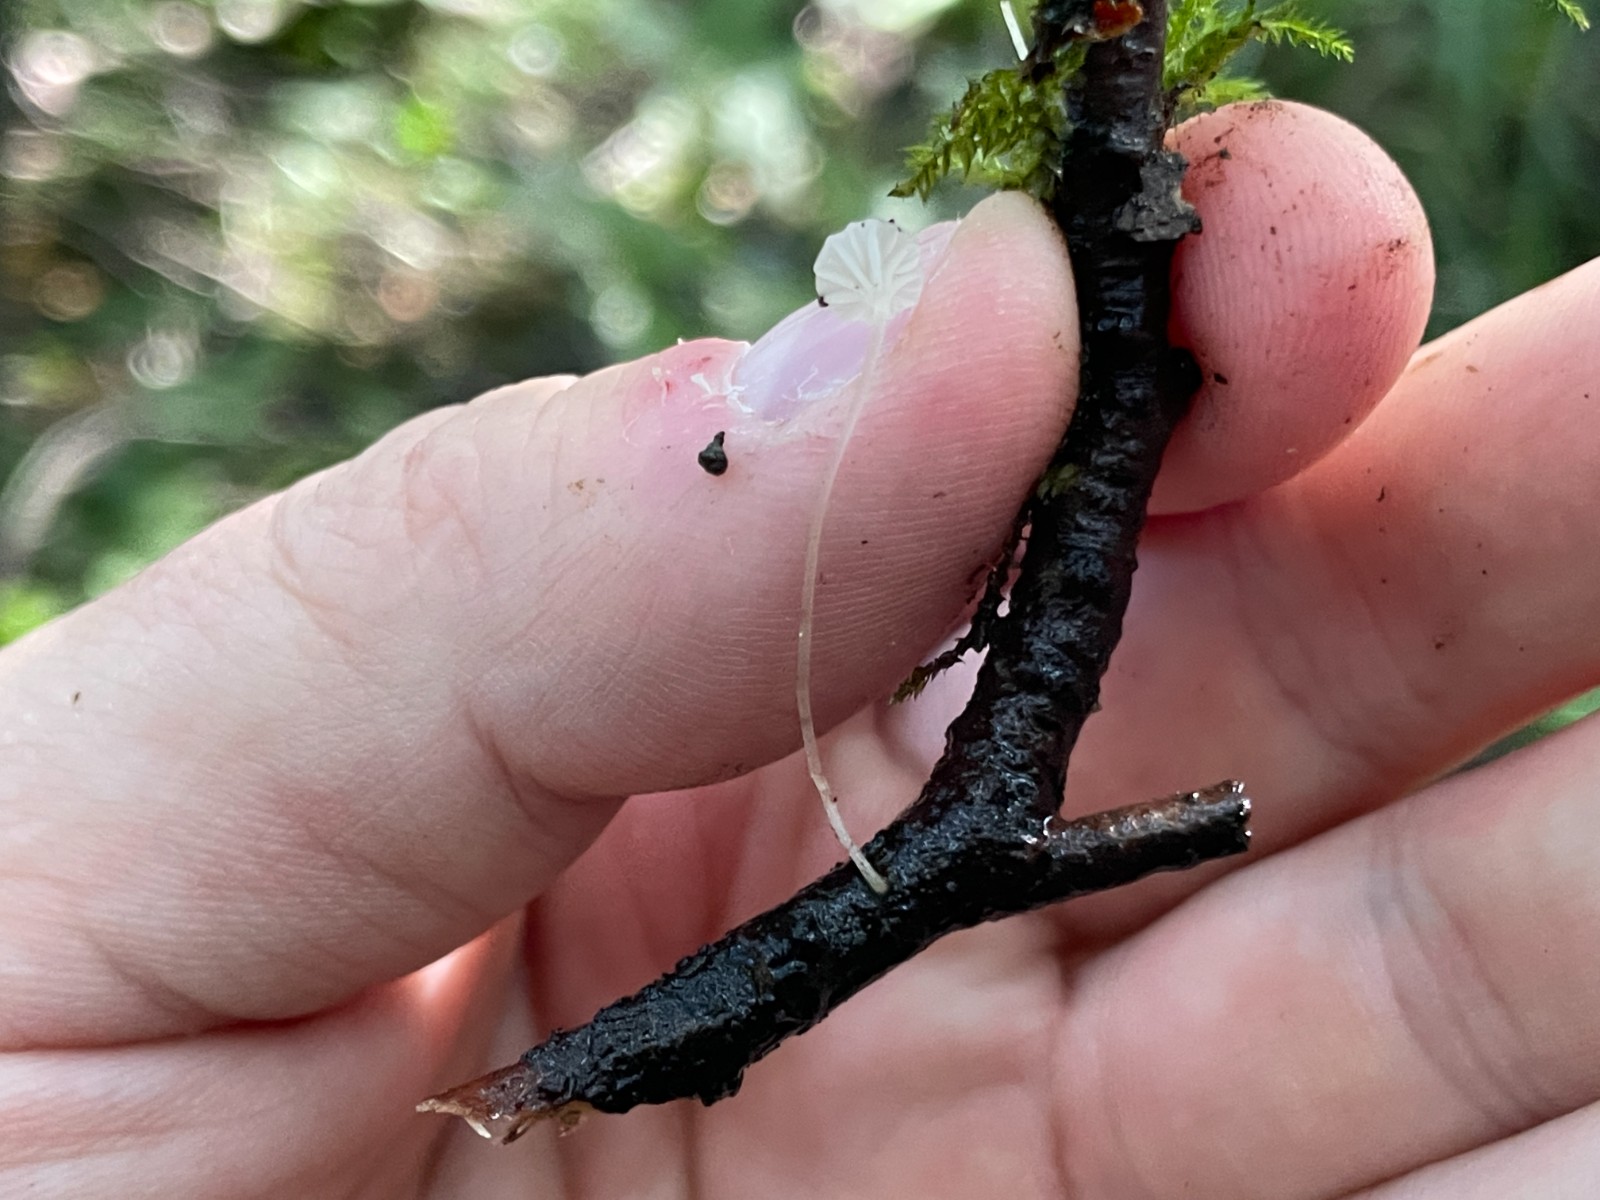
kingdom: Fungi
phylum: Basidiomycota
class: Agaricomycetes
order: Agaricales
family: Mycenaceae
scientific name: Mycenaceae
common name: huesvampfamilien
